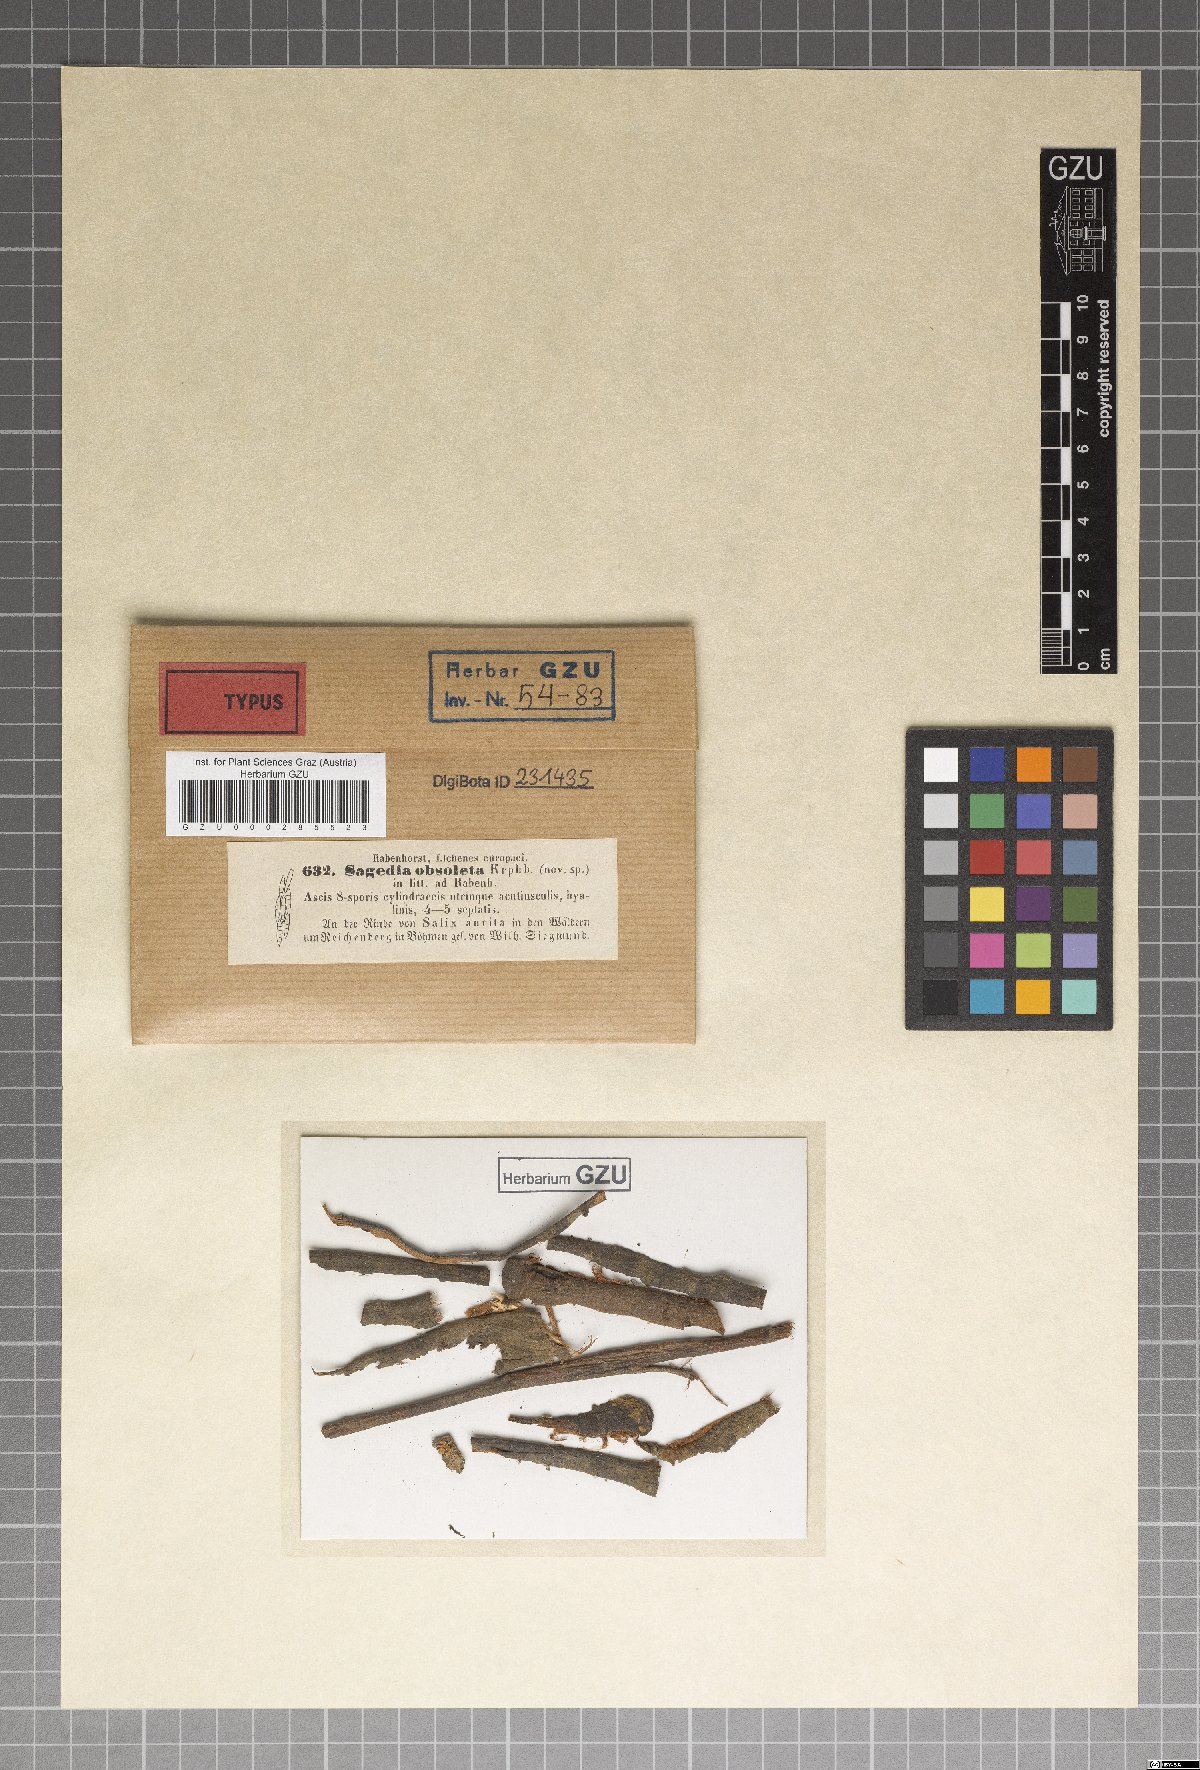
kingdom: Fungi
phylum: Ascomycota
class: Lecanoromycetes
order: Ostropales
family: Porinaceae
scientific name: Porinaceae
